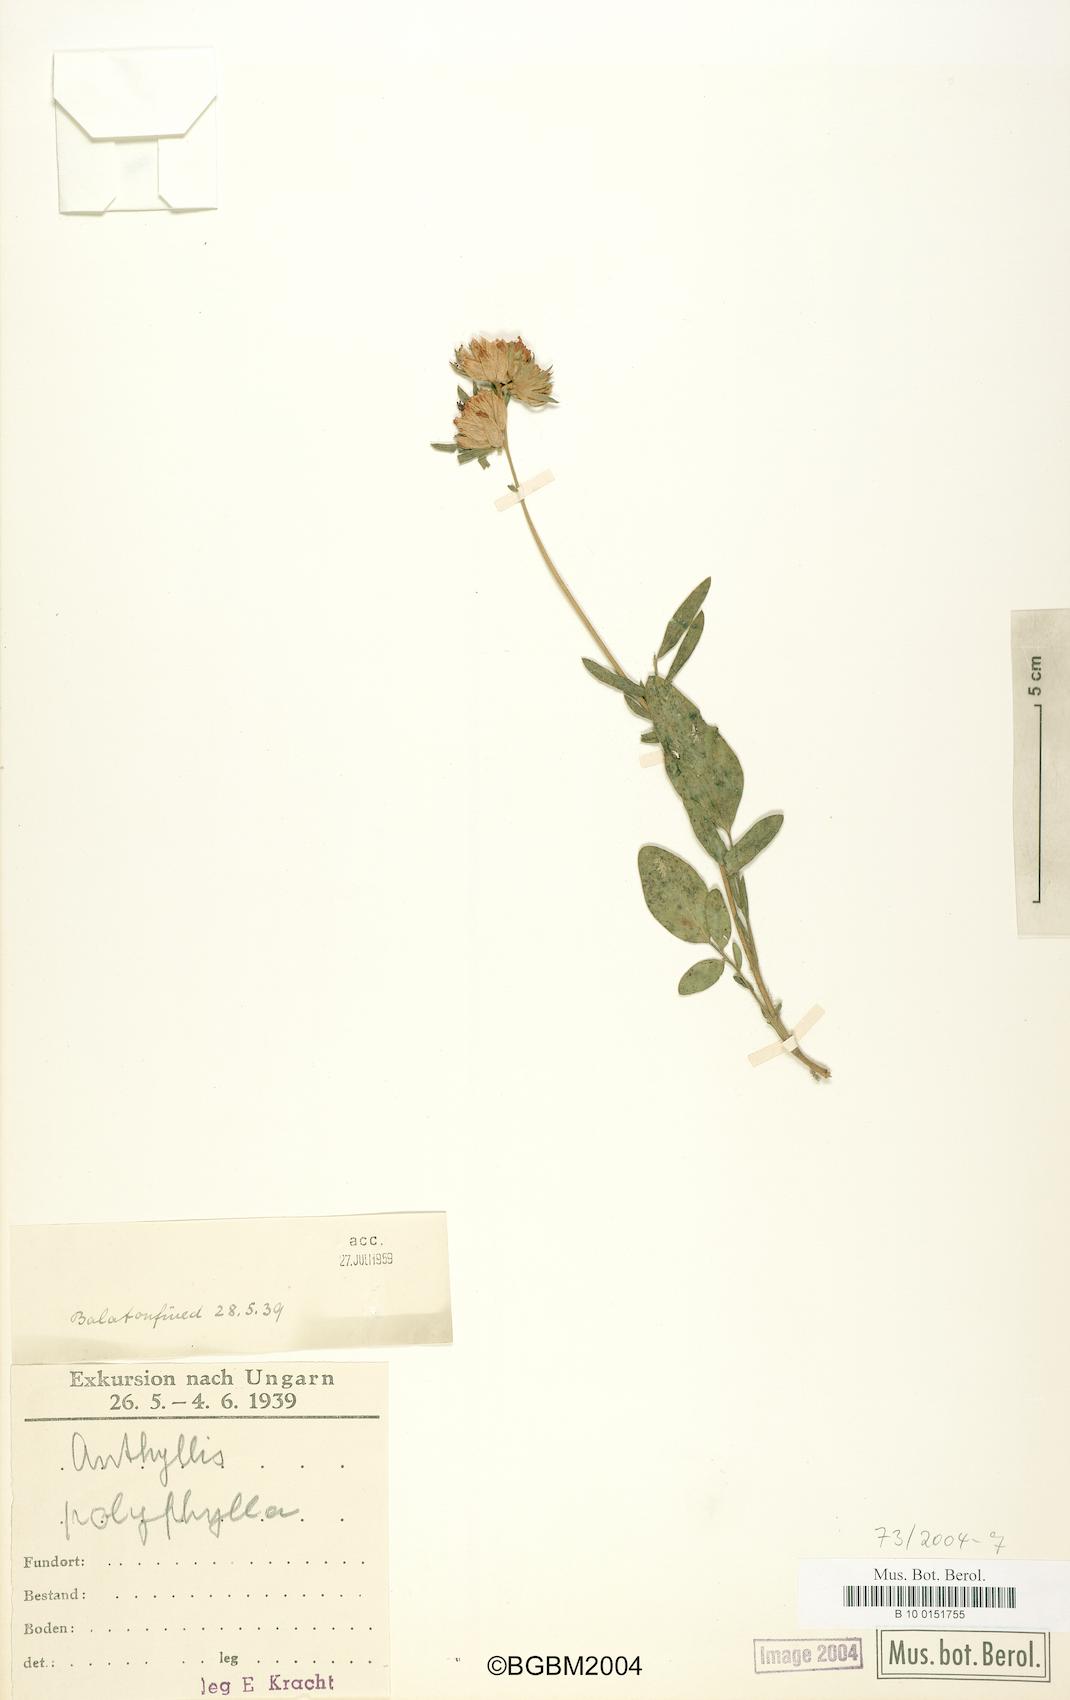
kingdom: Plantae
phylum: Tracheophyta
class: Magnoliopsida
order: Fabales
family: Fabaceae
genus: Anthyllis
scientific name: Anthyllis vulneraria
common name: Kidney vetch
